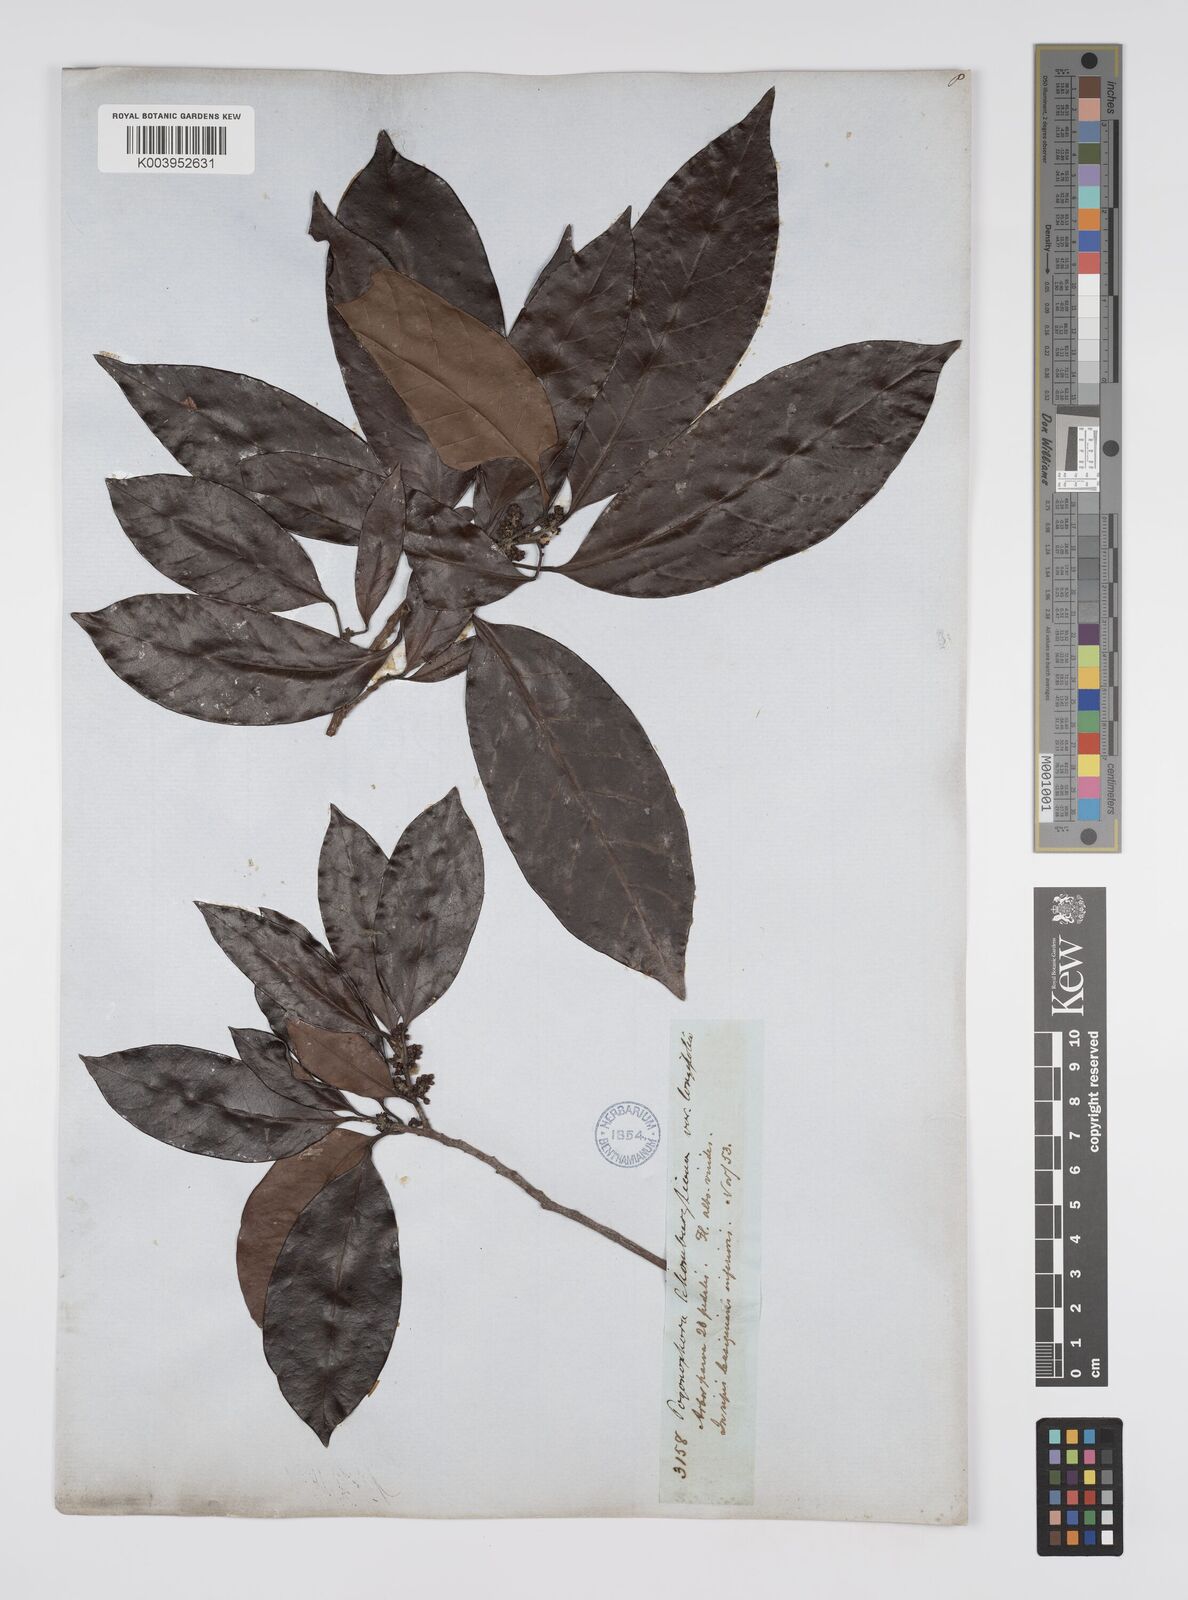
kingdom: Plantae
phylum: Tracheophyta
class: Magnoliopsida
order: Malpighiales
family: Peraceae
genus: Pogonophora
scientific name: Pogonophora schomburgkiana
